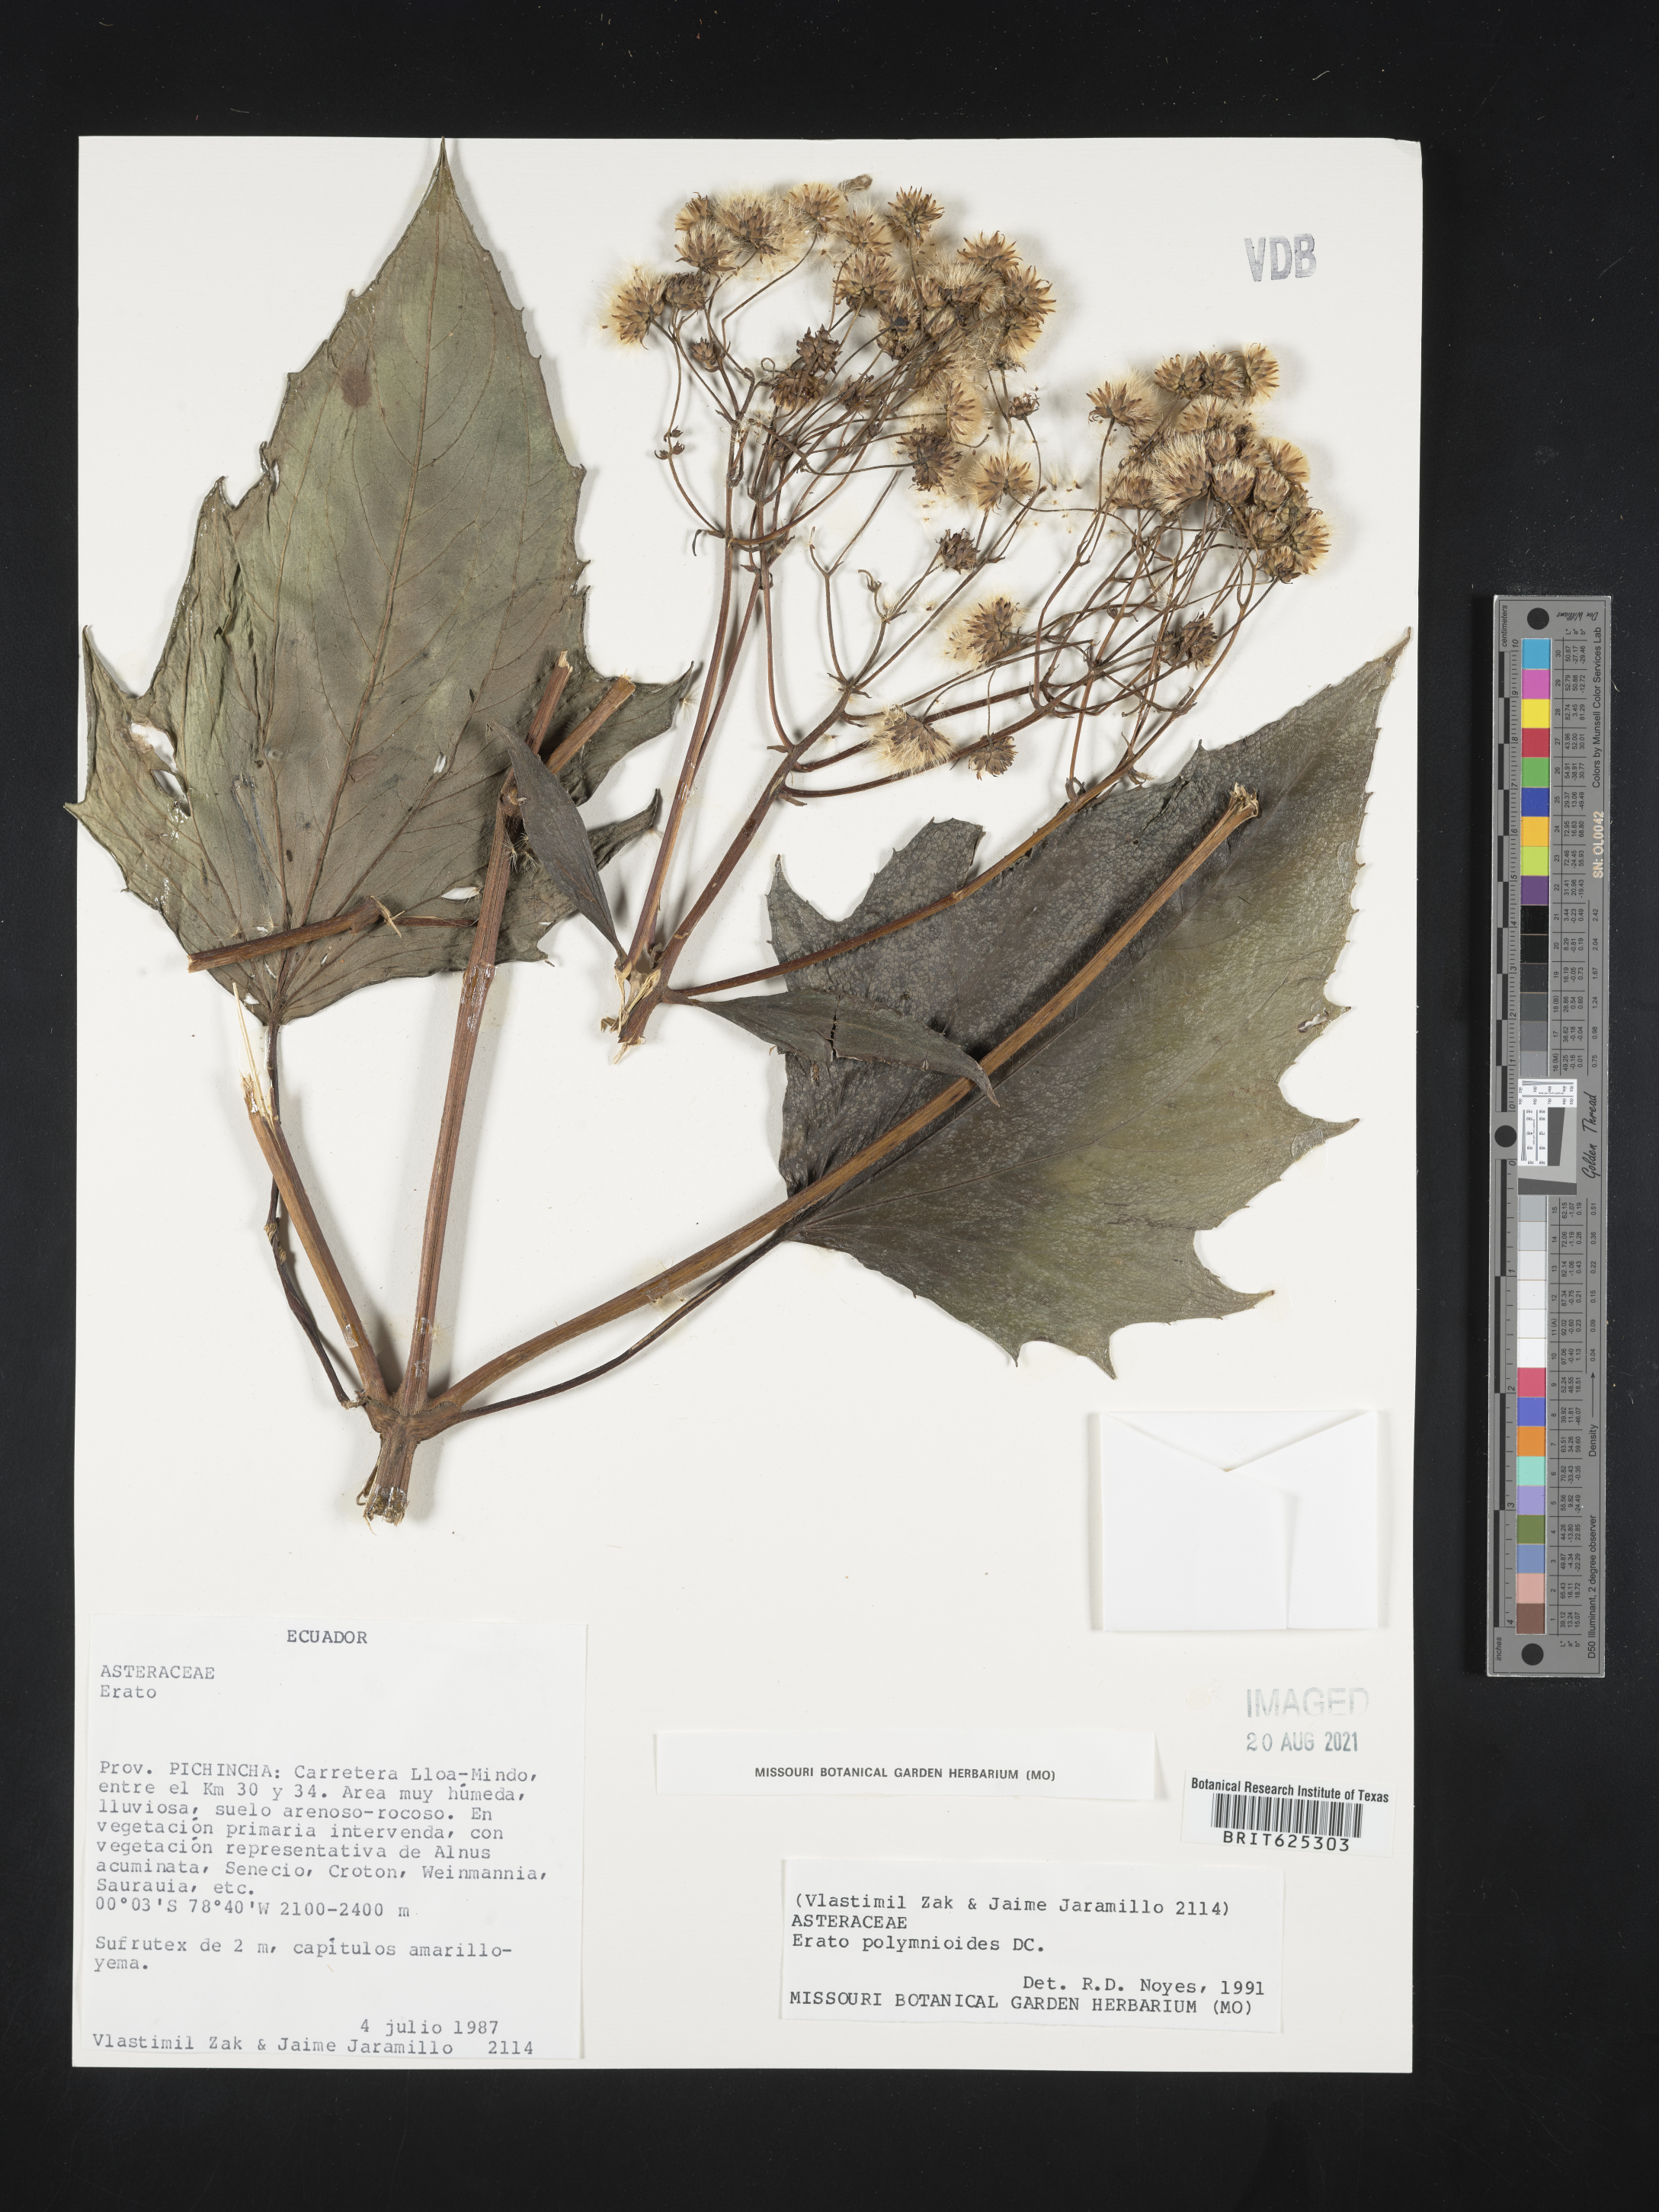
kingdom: Plantae
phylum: Tracheophyta
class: Magnoliopsida
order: Asterales
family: Asteraceae
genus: Erato
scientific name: Erato polymnioides
